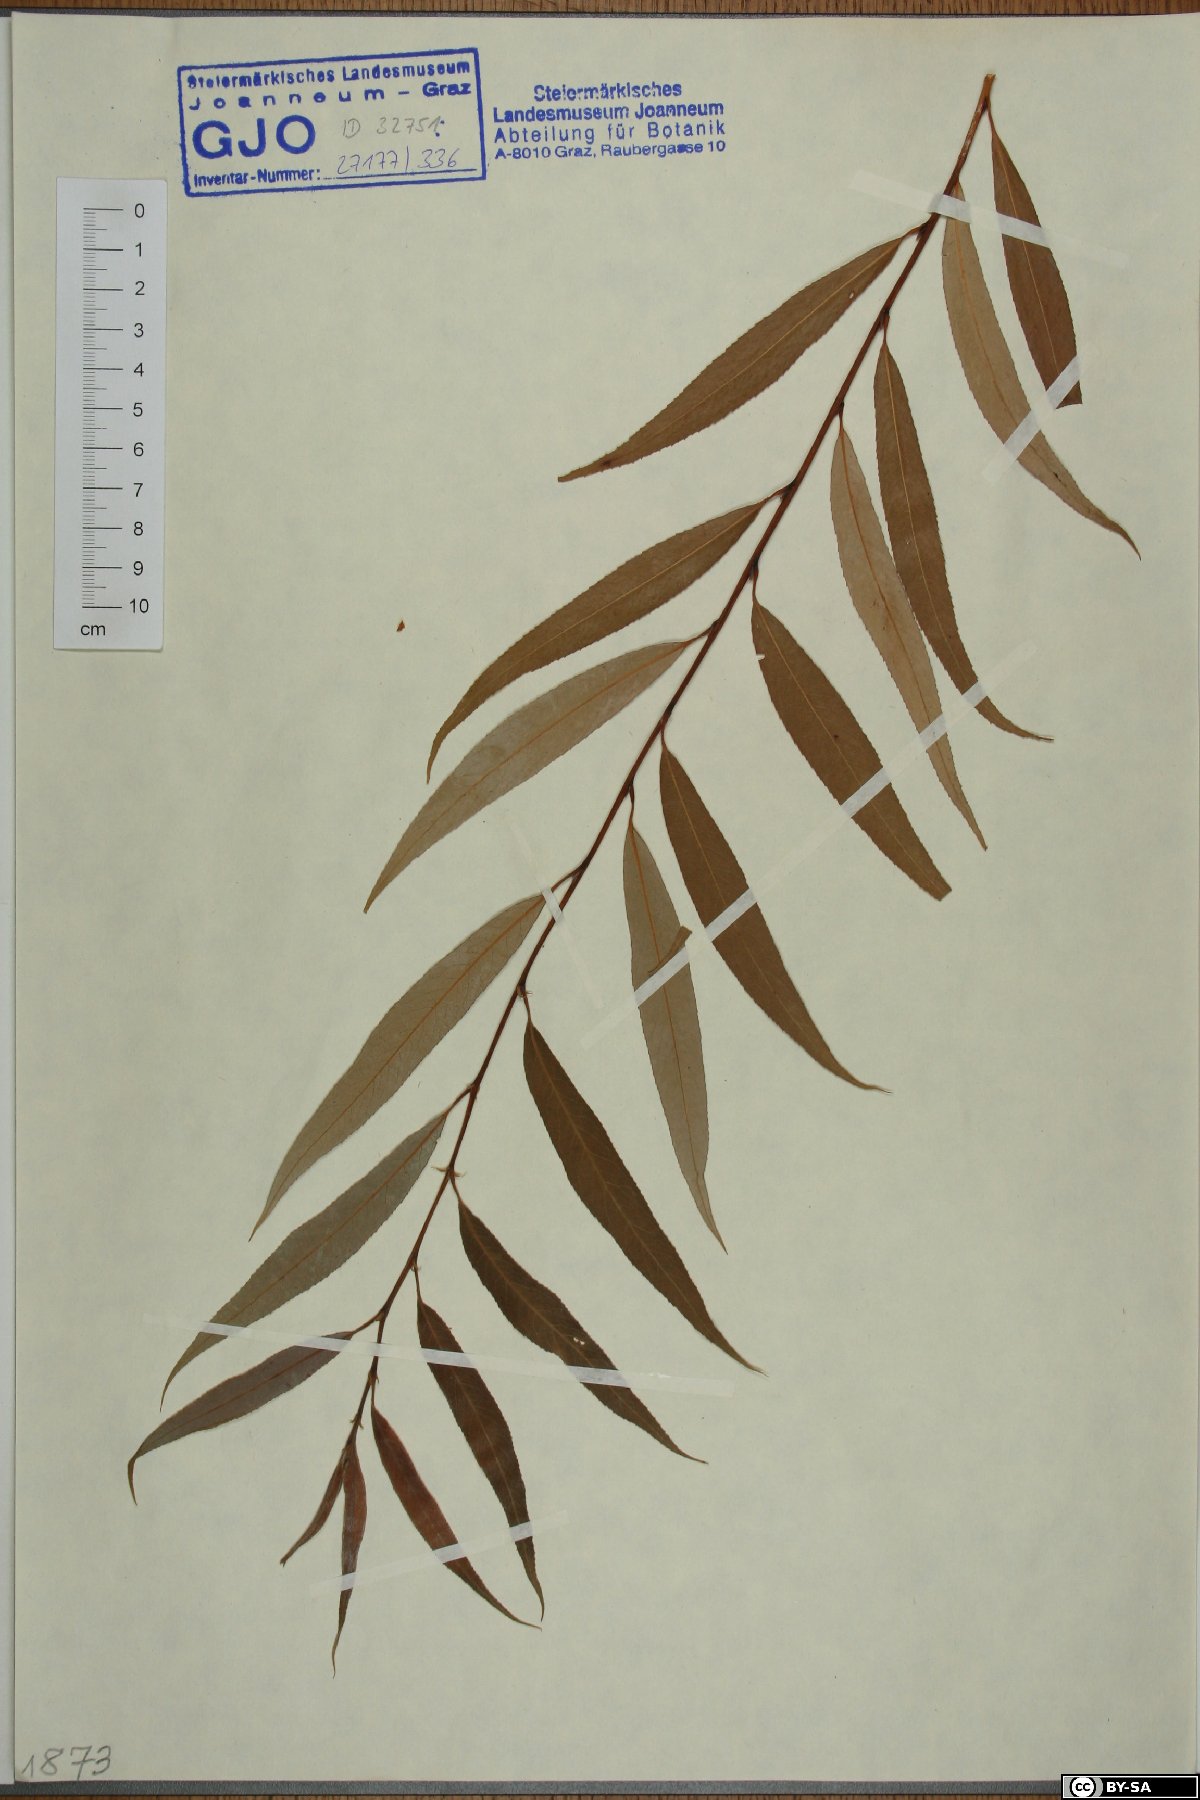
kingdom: Plantae
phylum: Tracheophyta
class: Magnoliopsida
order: Malpighiales
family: Salicaceae
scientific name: Salicaceae
